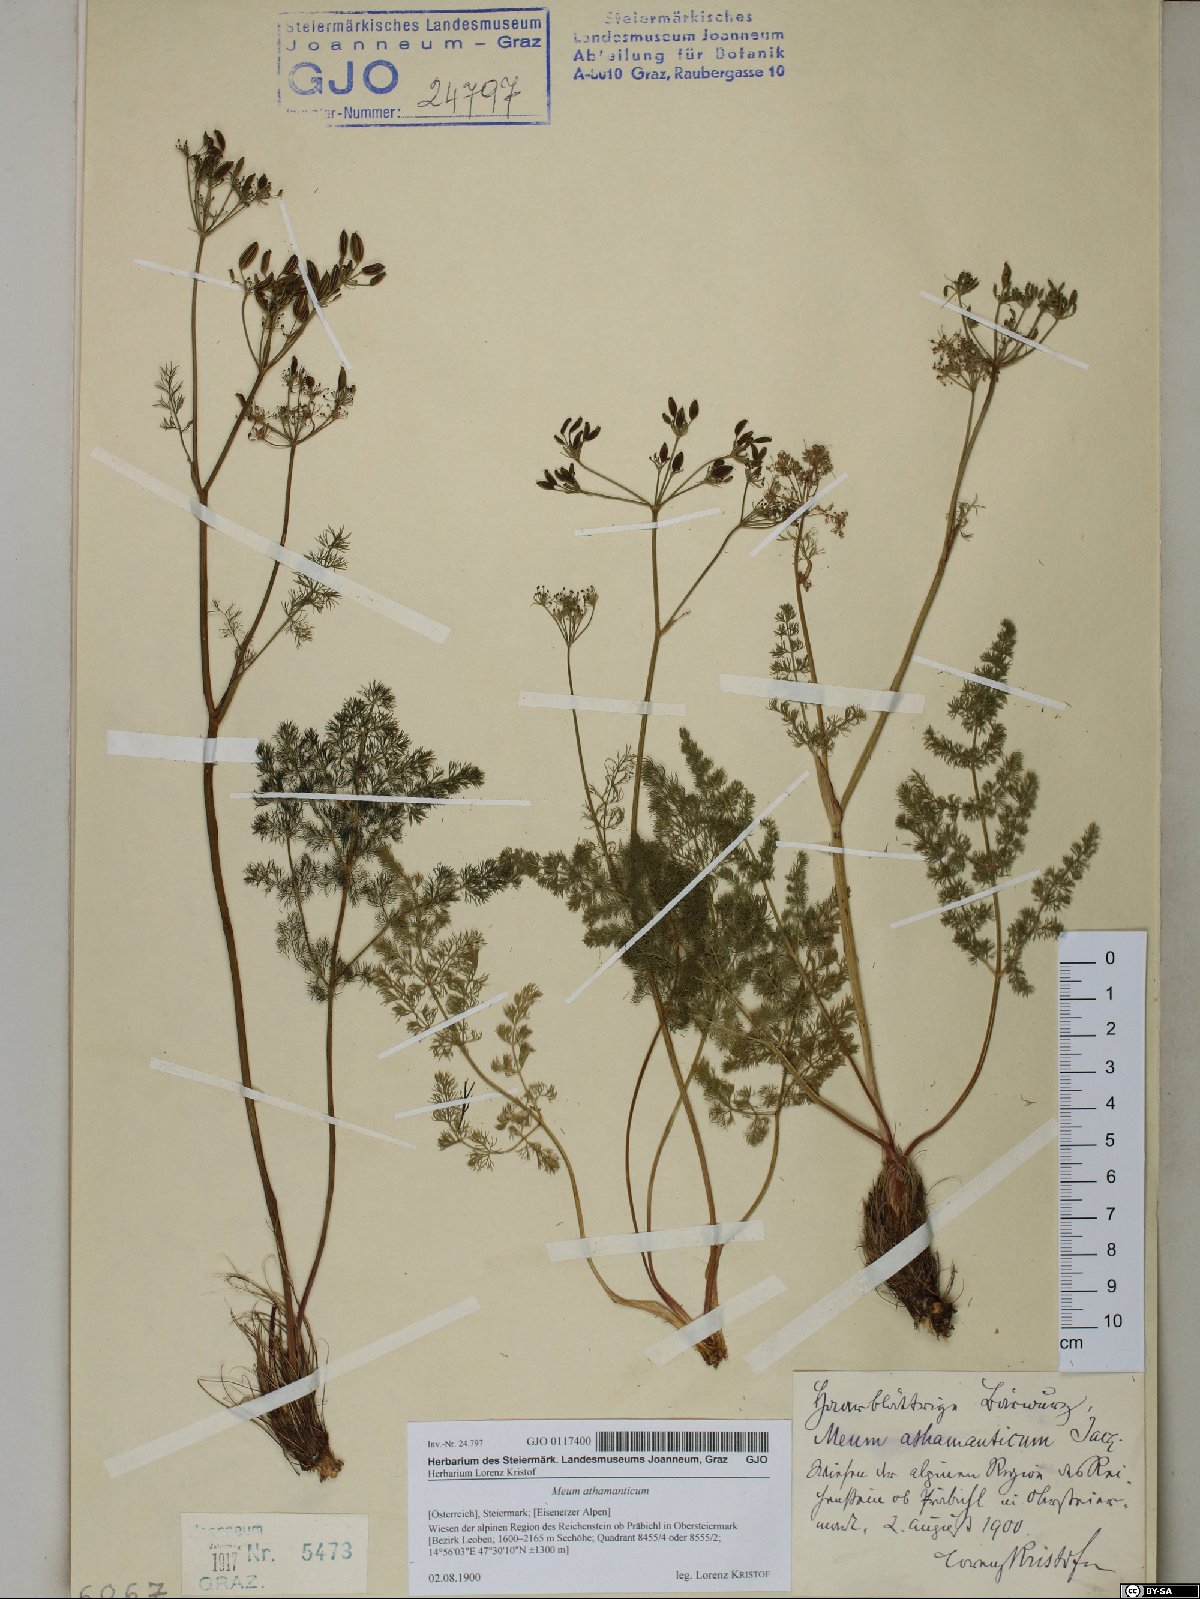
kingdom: Plantae
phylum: Tracheophyta
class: Magnoliopsida
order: Apiales
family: Apiaceae
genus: Meum
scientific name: Meum athamanticum
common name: Spignel
